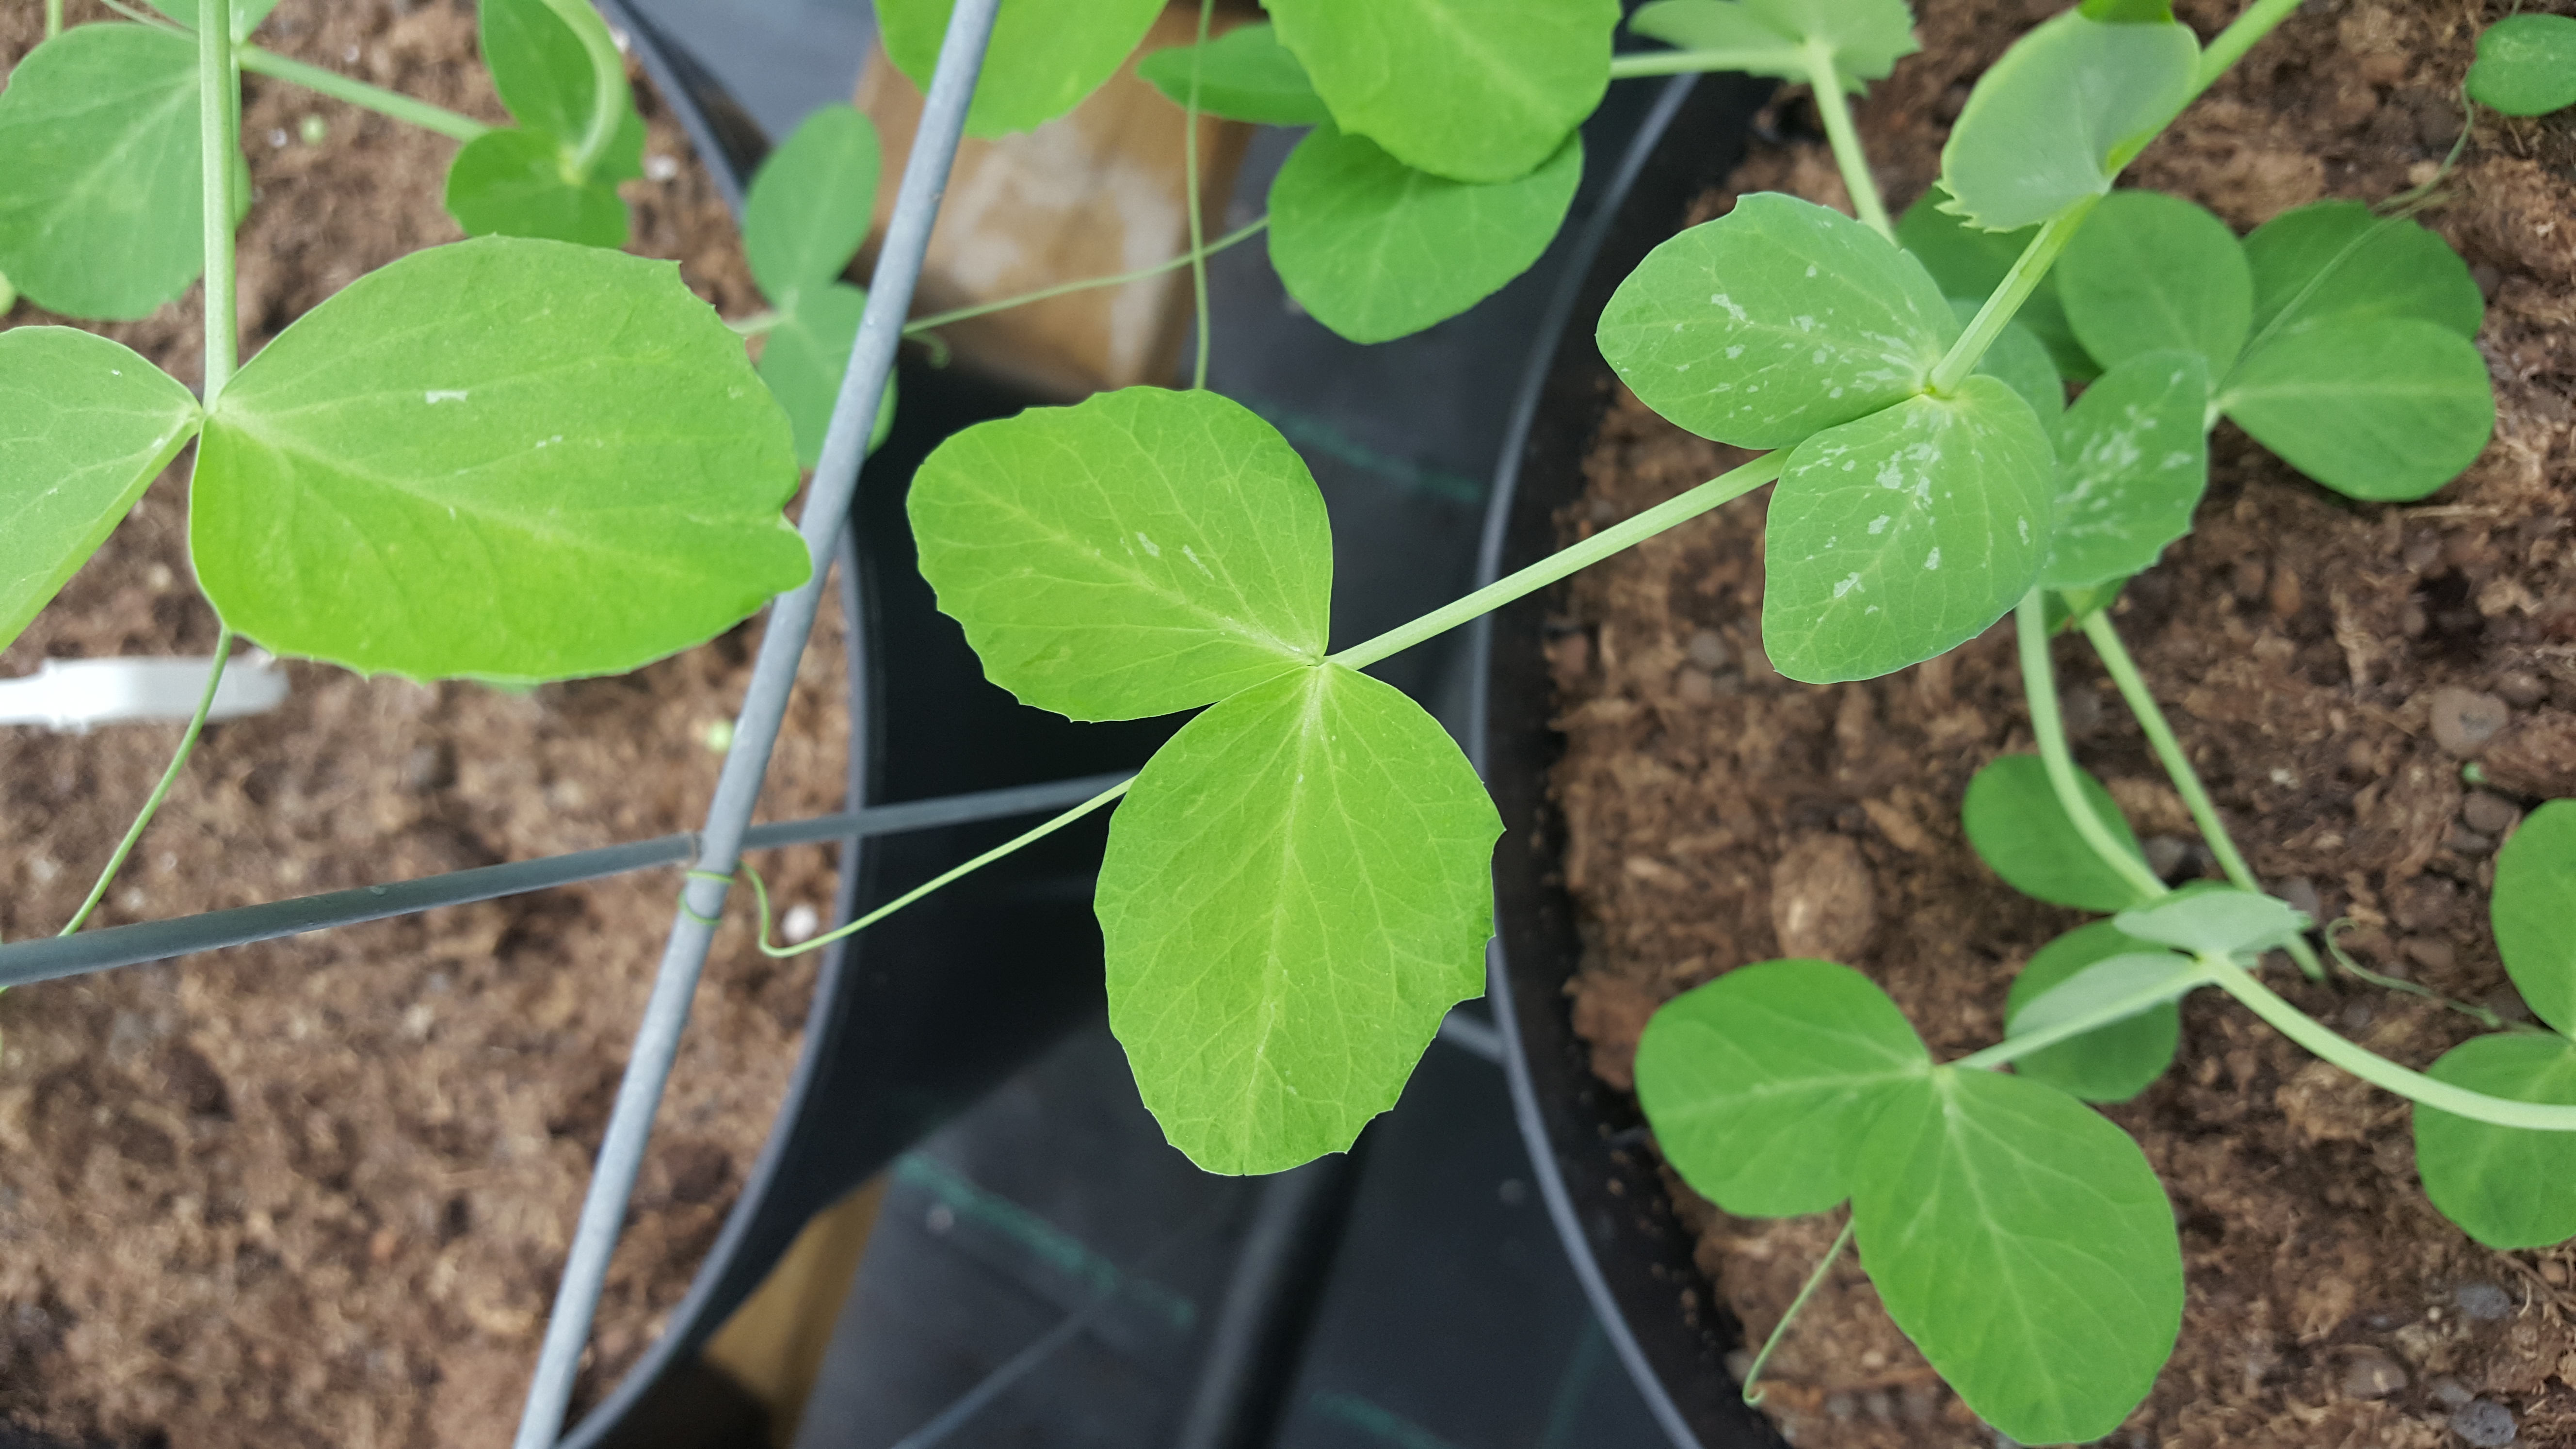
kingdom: Plantae
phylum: Tracheophyta
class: Magnoliopsida
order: Fabales
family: Fabaceae
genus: Lathyrus
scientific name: Lathyrus oleraceus
